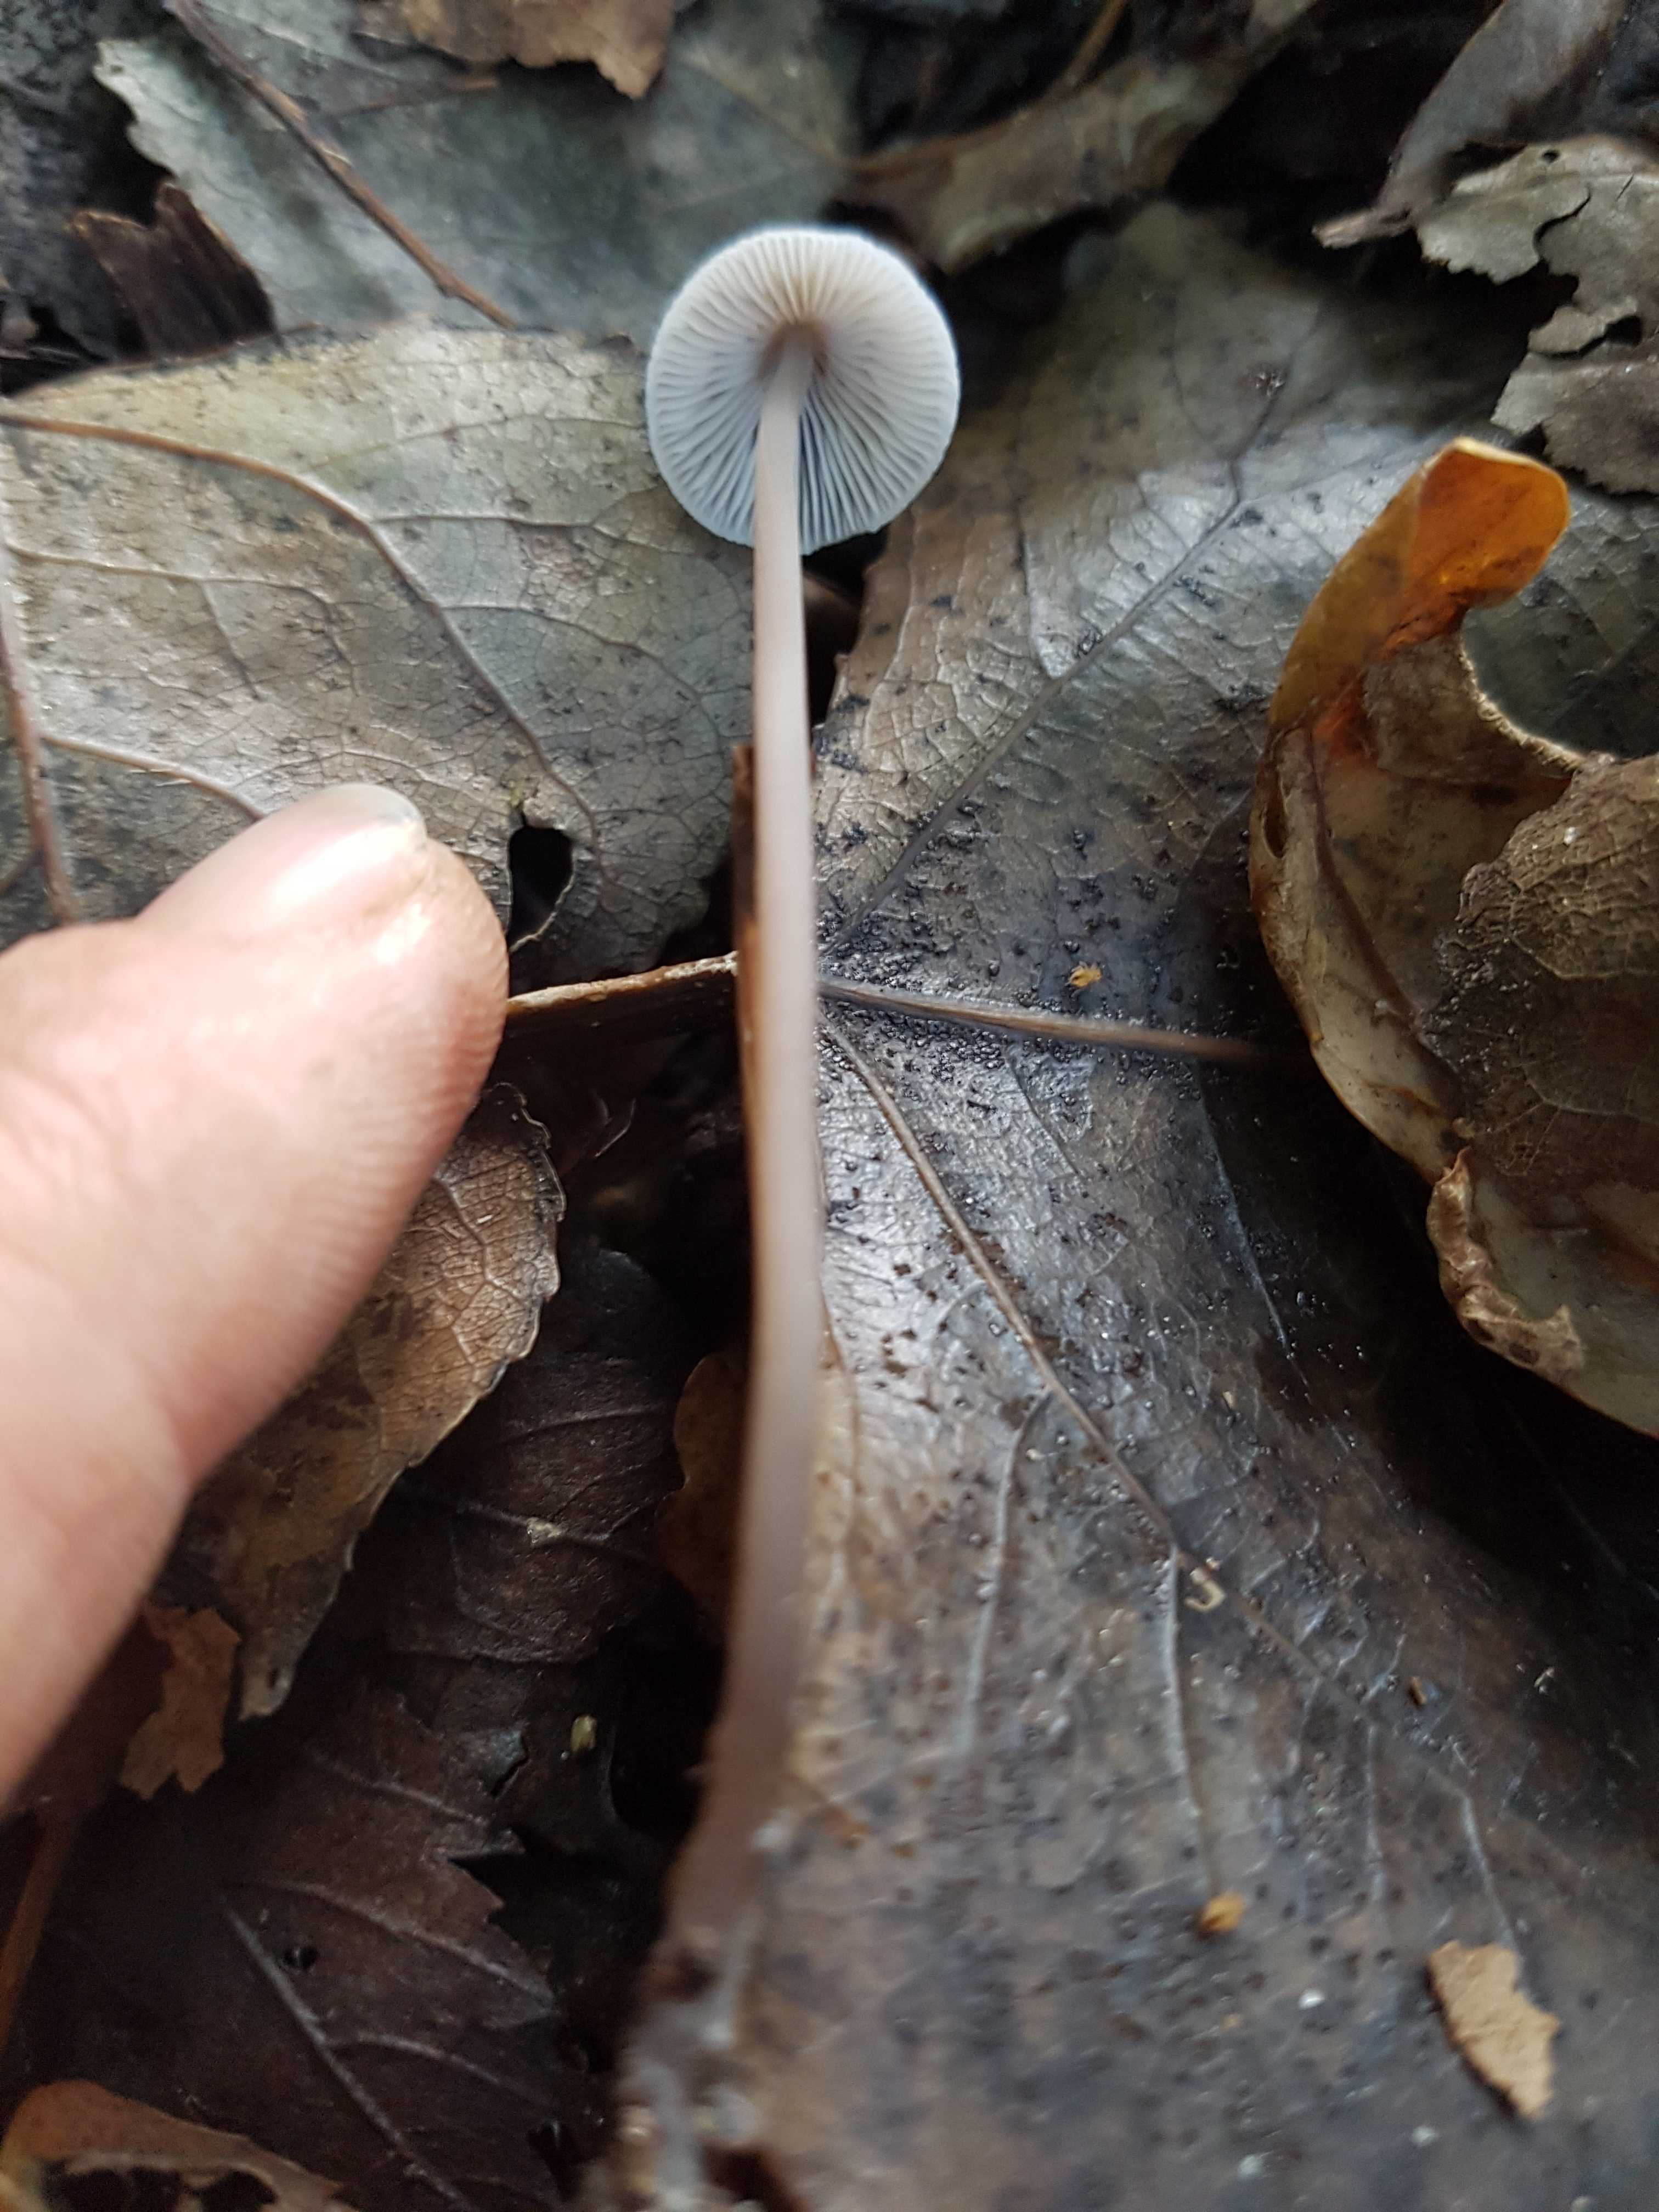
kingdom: Fungi
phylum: Basidiomycota
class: Agaricomycetes
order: Agaricales
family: Mycenaceae
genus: Mycena
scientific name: Mycena
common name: huesvamp
